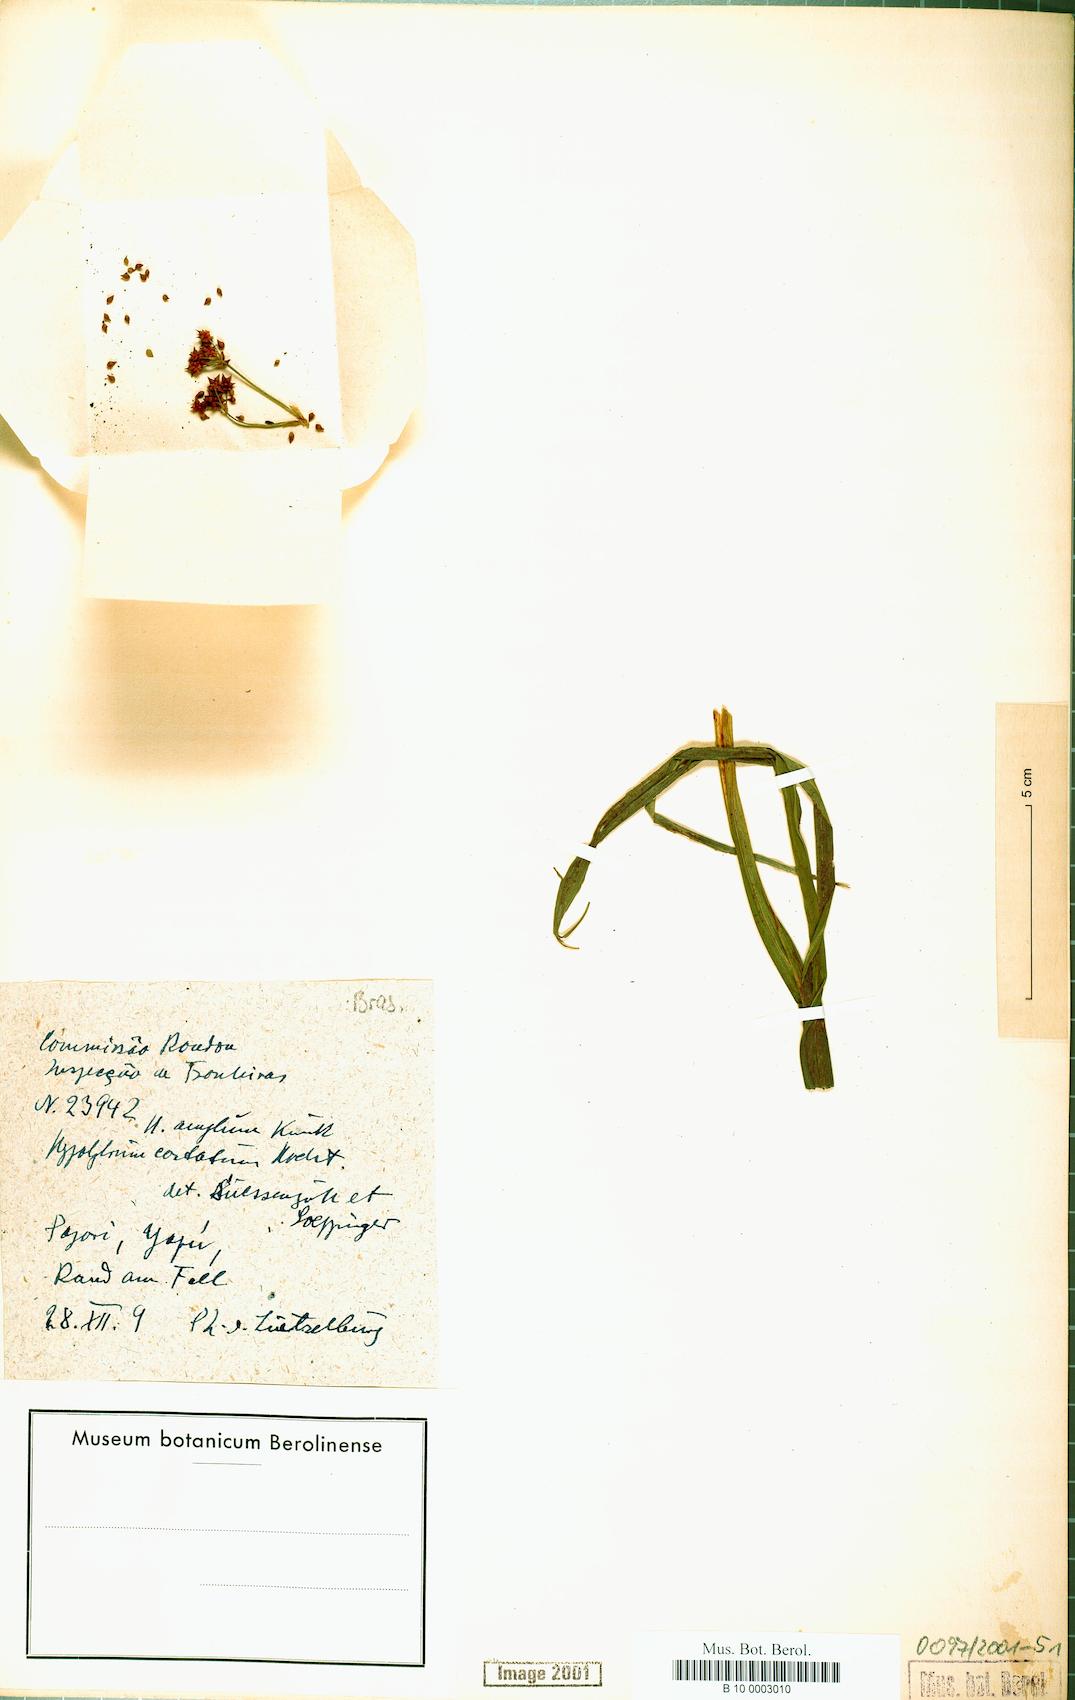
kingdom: Plantae
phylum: Tracheophyta
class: Liliopsida
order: Poales
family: Cyperaceae
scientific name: Cyperaceae
